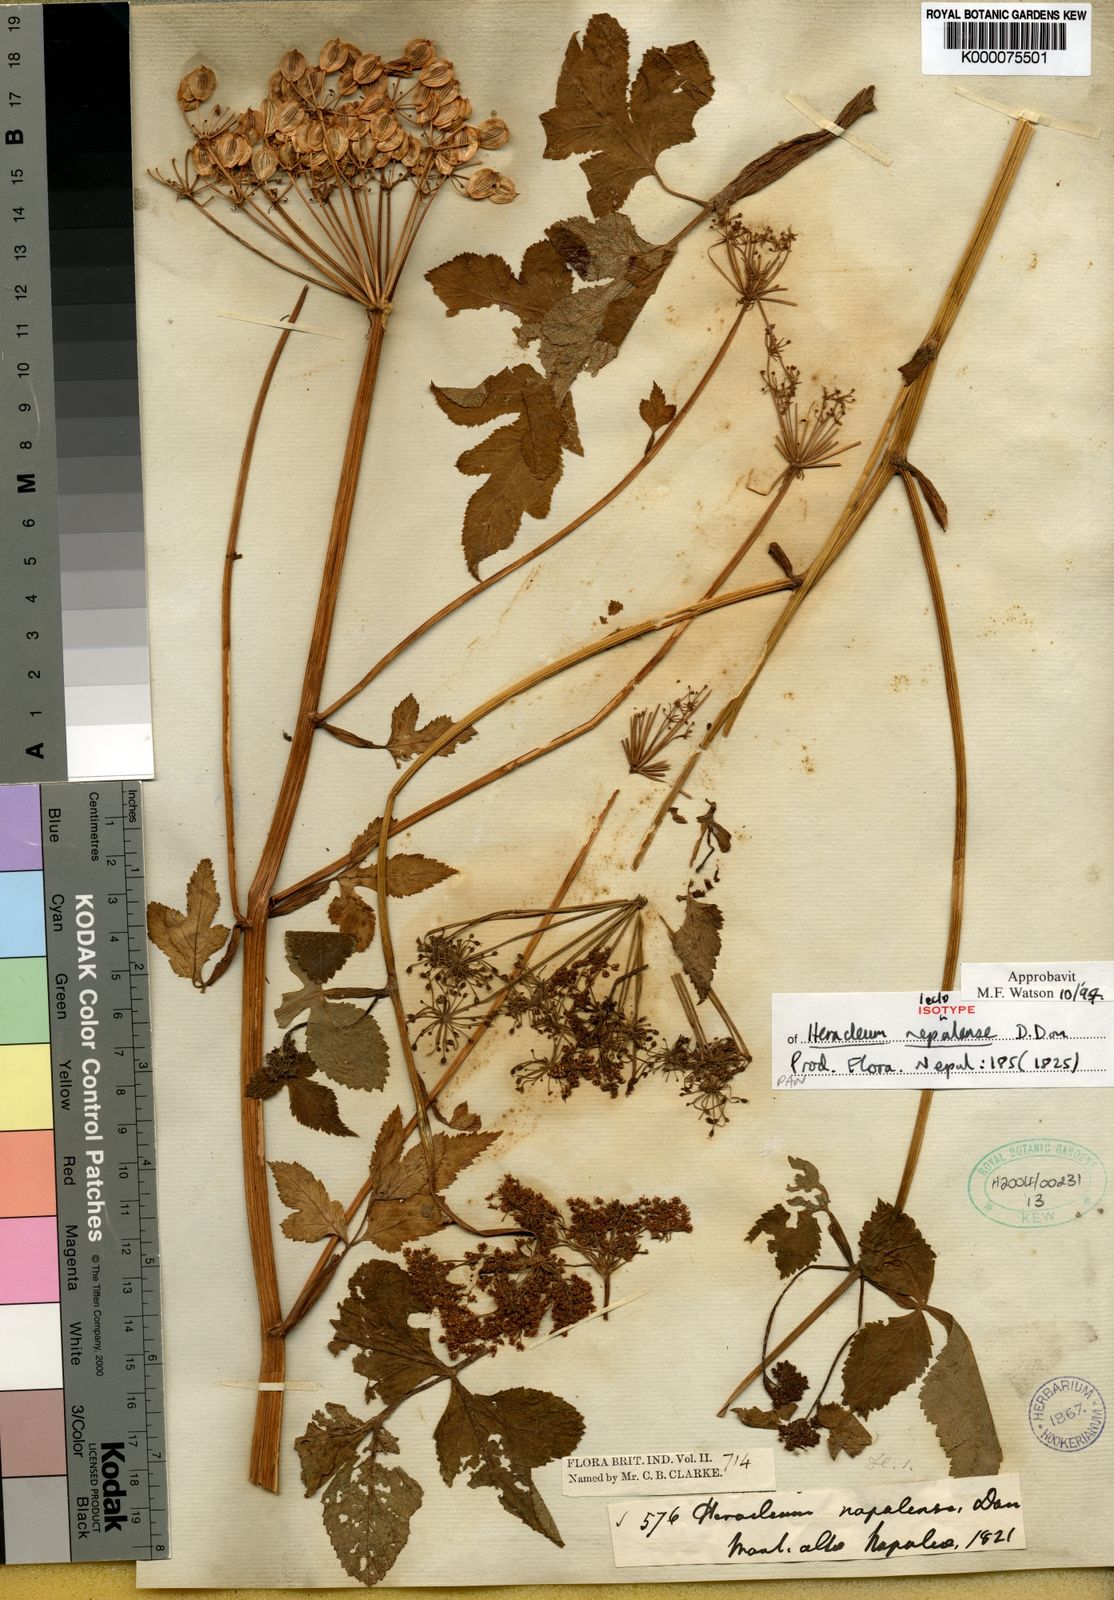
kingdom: Plantae
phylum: Tracheophyta
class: Magnoliopsida
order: Apiales
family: Apiaceae
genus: Tetrataenium
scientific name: Tetrataenium nepalense
